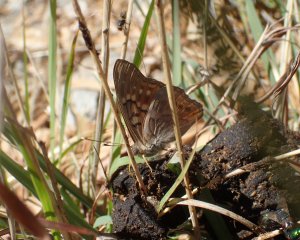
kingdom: Animalia
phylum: Arthropoda
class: Insecta
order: Lepidoptera
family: Nymphalidae
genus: Asterocampa
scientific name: Asterocampa clyton
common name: Tawny Emperor
